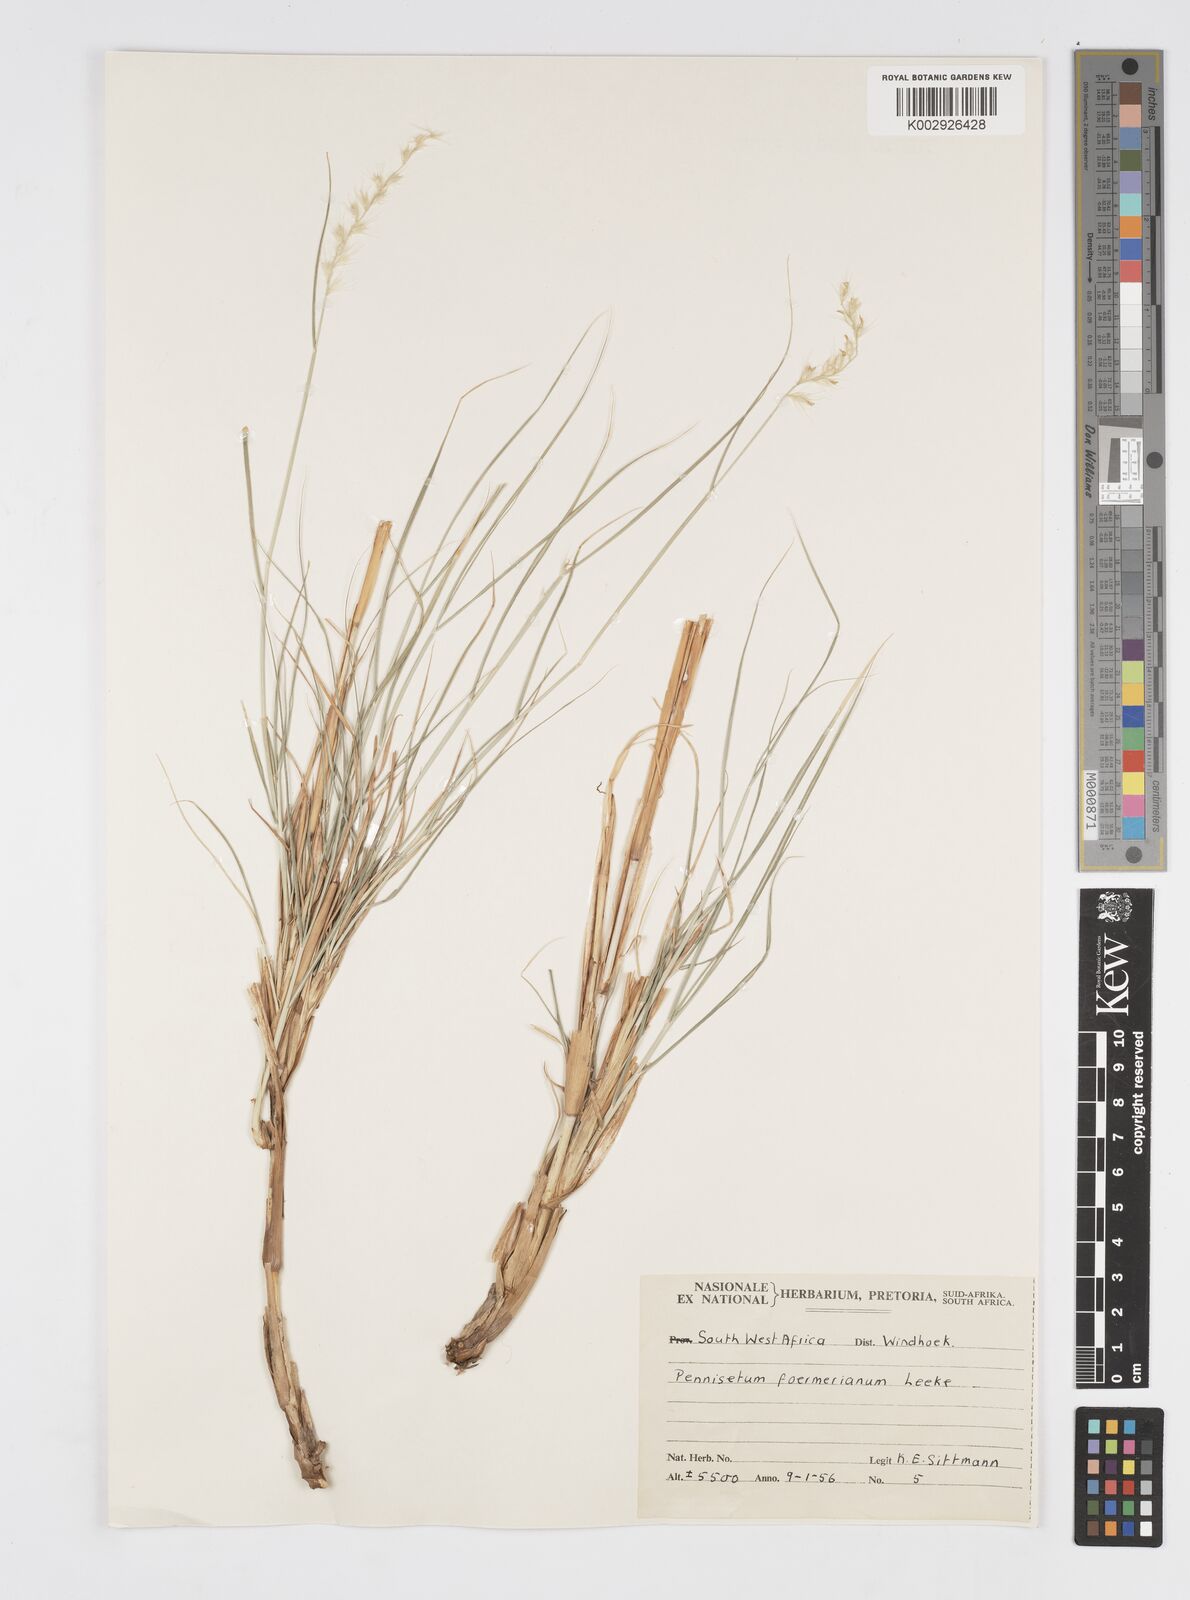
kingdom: Plantae
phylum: Tracheophyta
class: Liliopsida
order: Poales
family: Poaceae
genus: Cenchrus
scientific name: Cenchrus foermerianus
